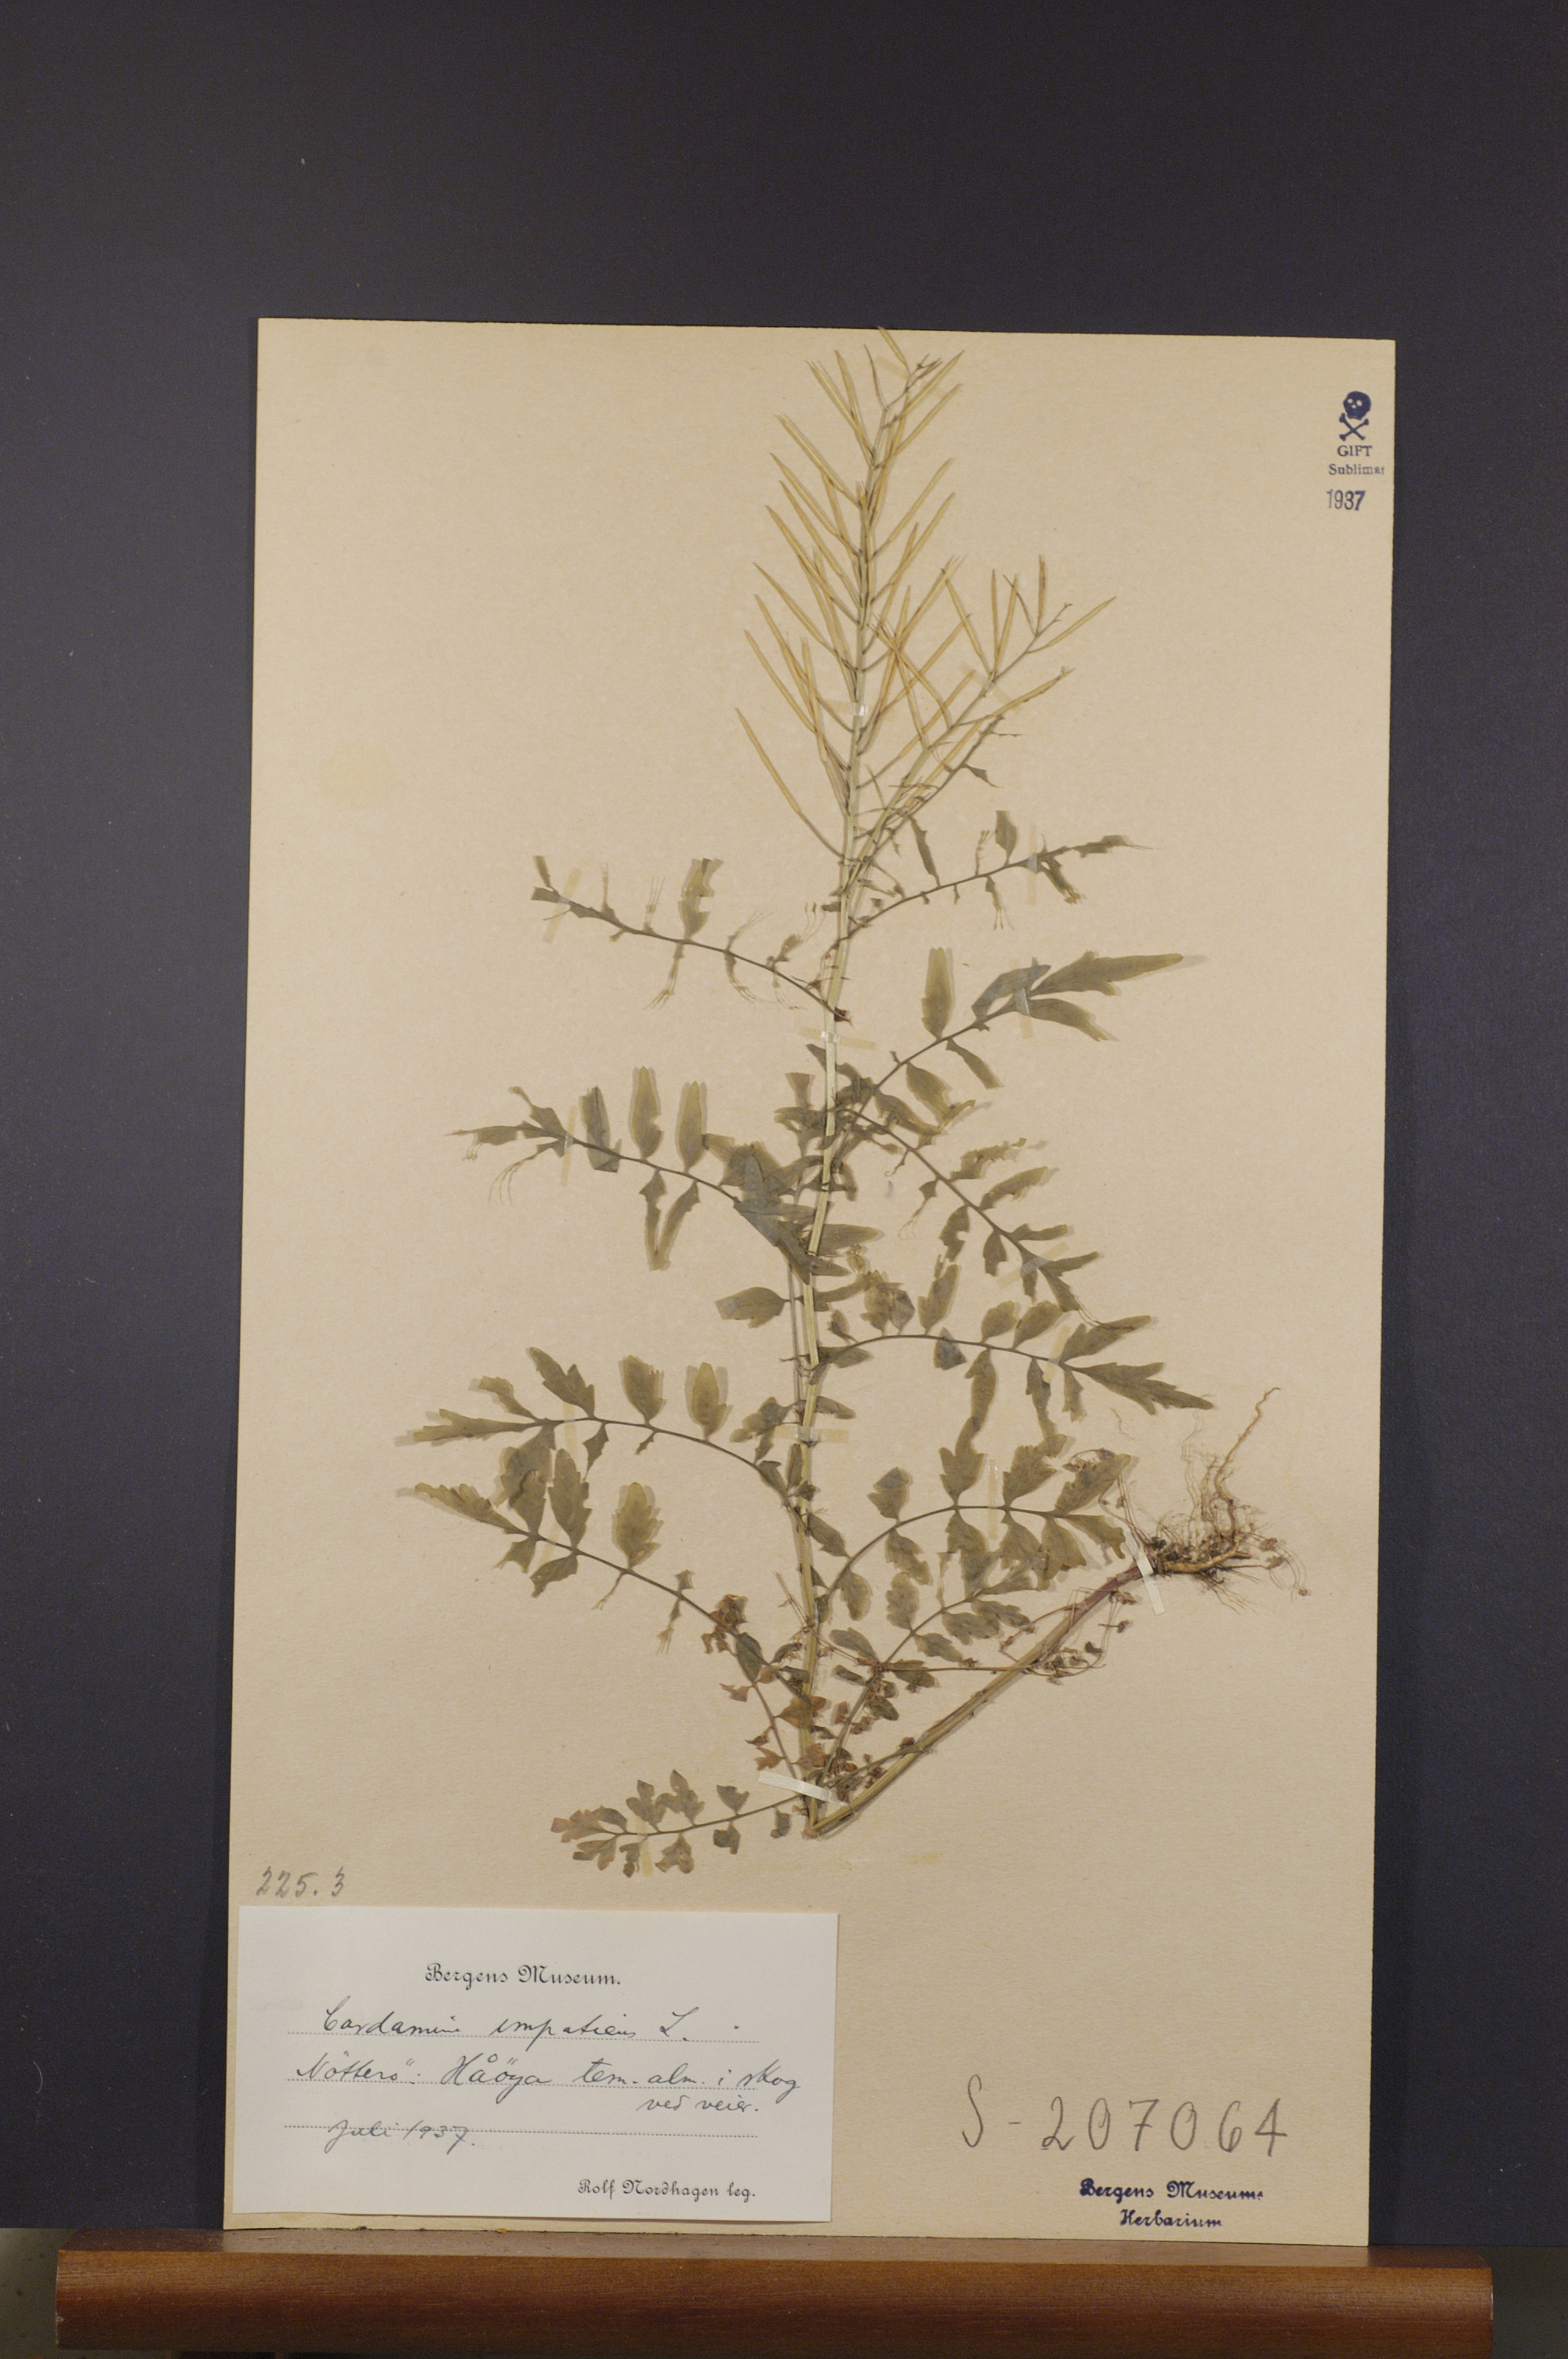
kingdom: Plantae
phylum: Tracheophyta
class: Magnoliopsida
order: Brassicales
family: Brassicaceae
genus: Cardamine
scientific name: Cardamine impatiens
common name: Narrow-leaved bitter-cress
